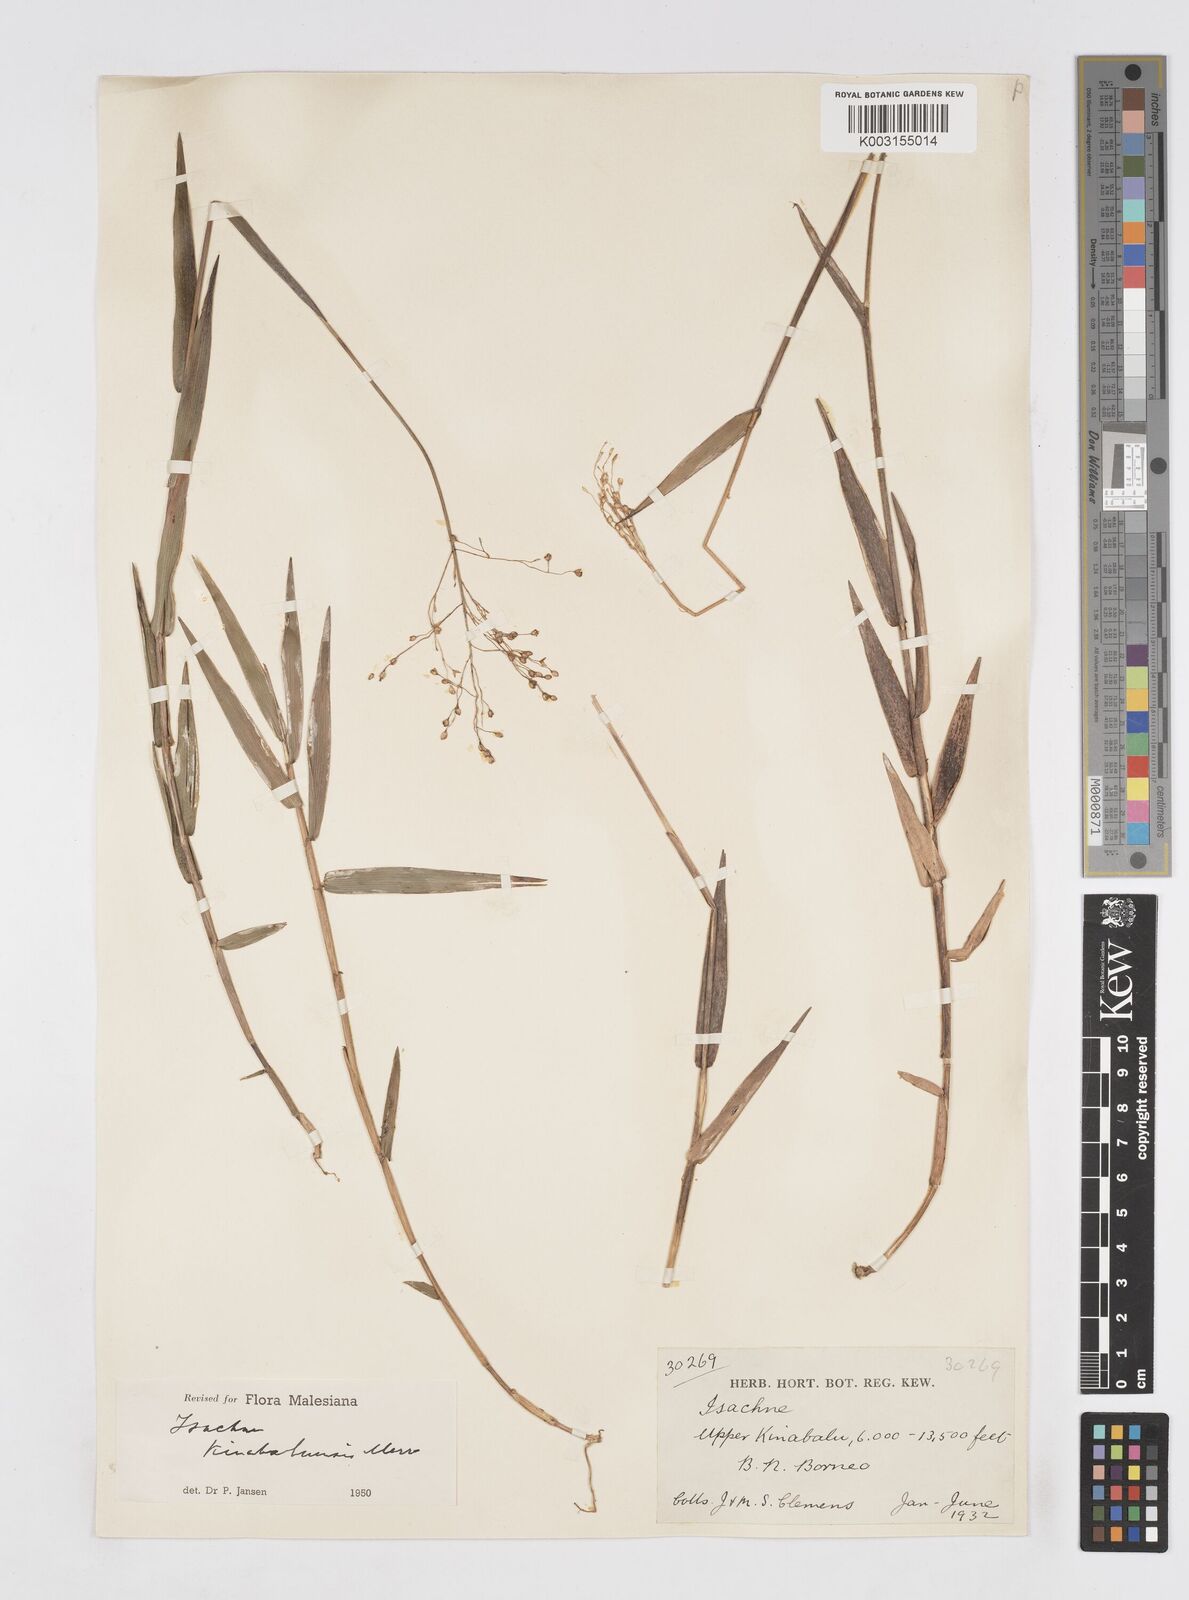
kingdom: Plantae
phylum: Tracheophyta
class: Liliopsida
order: Poales
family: Poaceae
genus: Isachne
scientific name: Isachne kinabaluensis
